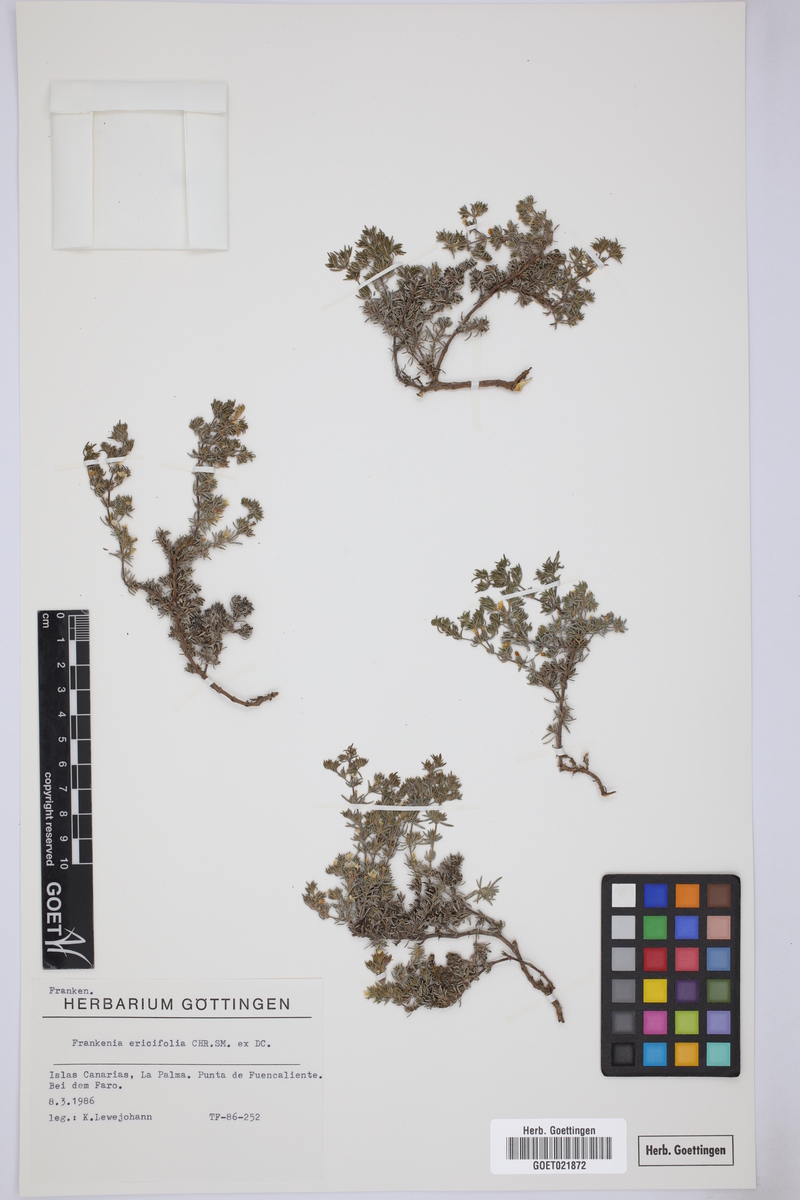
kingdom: Plantae
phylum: Tracheophyta
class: Magnoliopsida
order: Caryophyllales
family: Frankeniaceae
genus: Frankenia
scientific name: Frankenia ericifolia
